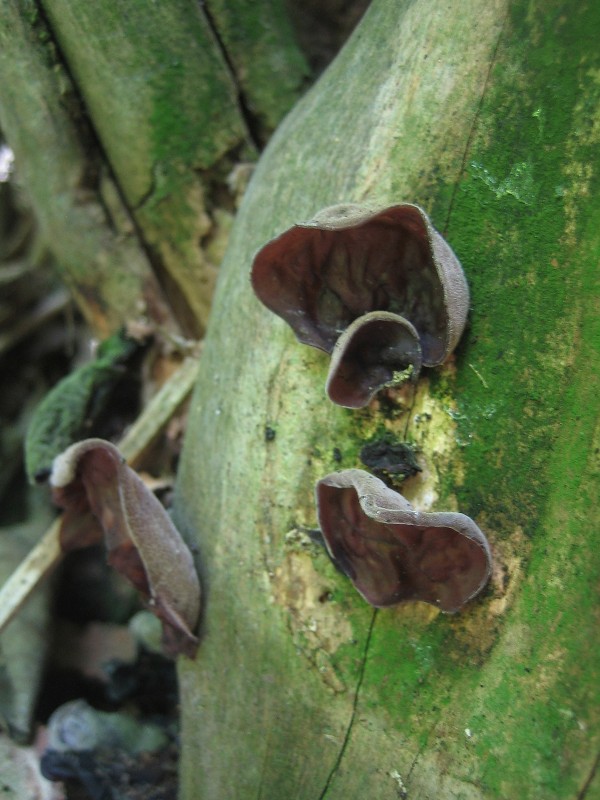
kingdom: Fungi
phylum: Basidiomycota
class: Agaricomycetes
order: Auriculariales
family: Auriculariaceae
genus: Auricularia
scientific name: Auricularia auricula-judae
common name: almindelig judasøre
